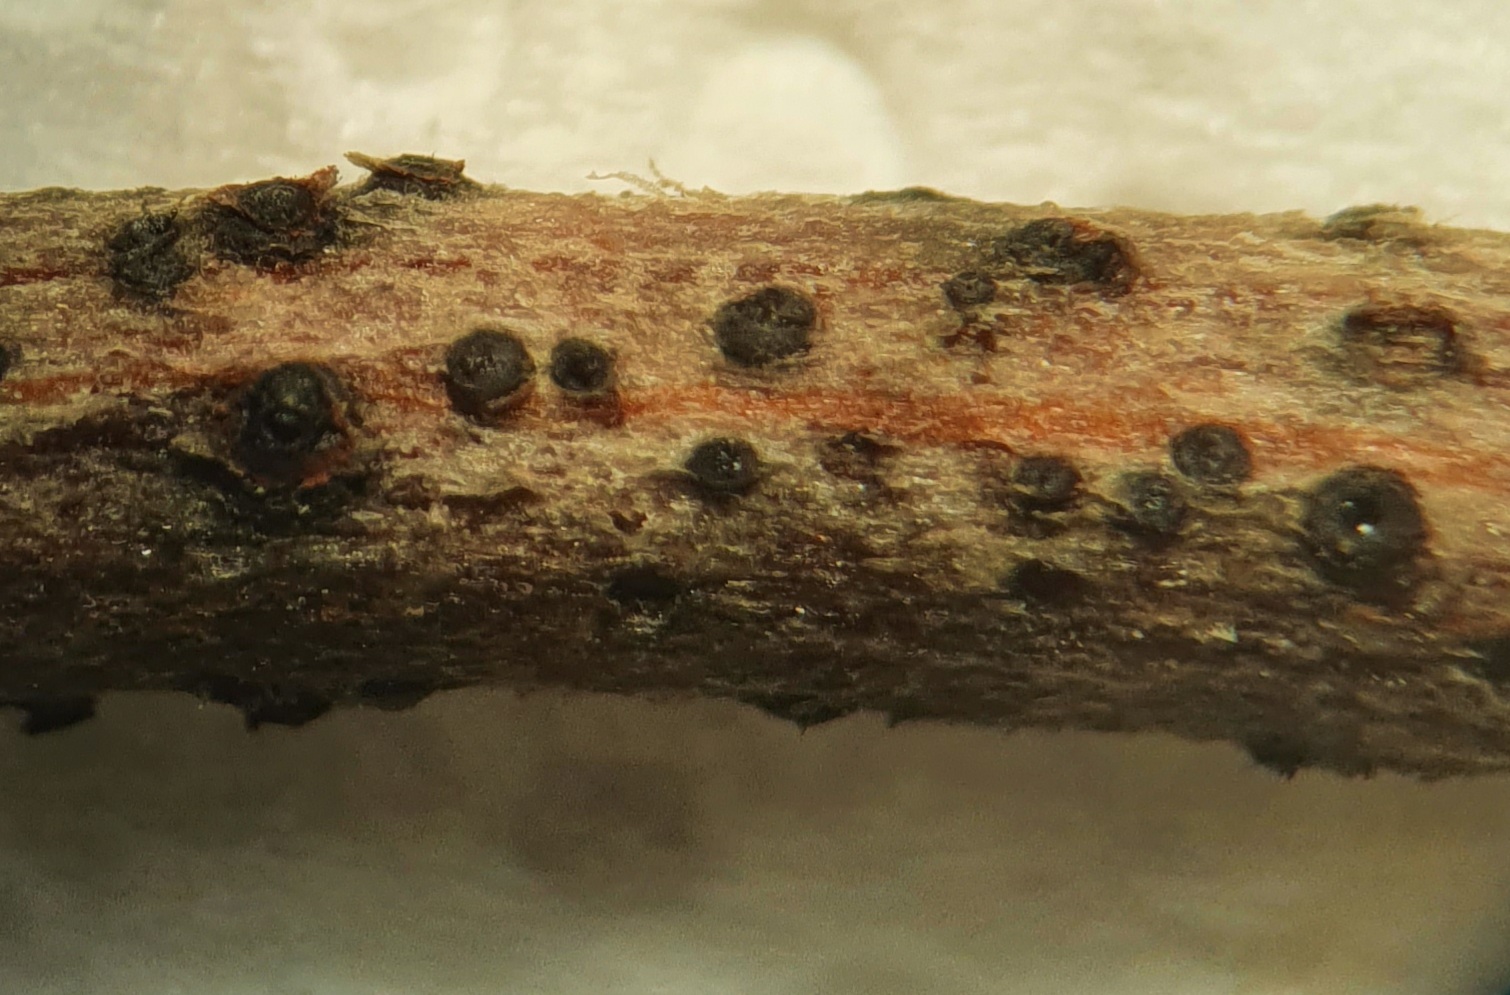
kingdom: Fungi
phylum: Ascomycota
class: Dothideomycetes
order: Pleosporales
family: Pleomassariaceae
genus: Splanchnonema
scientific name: Splanchnonema foedans
